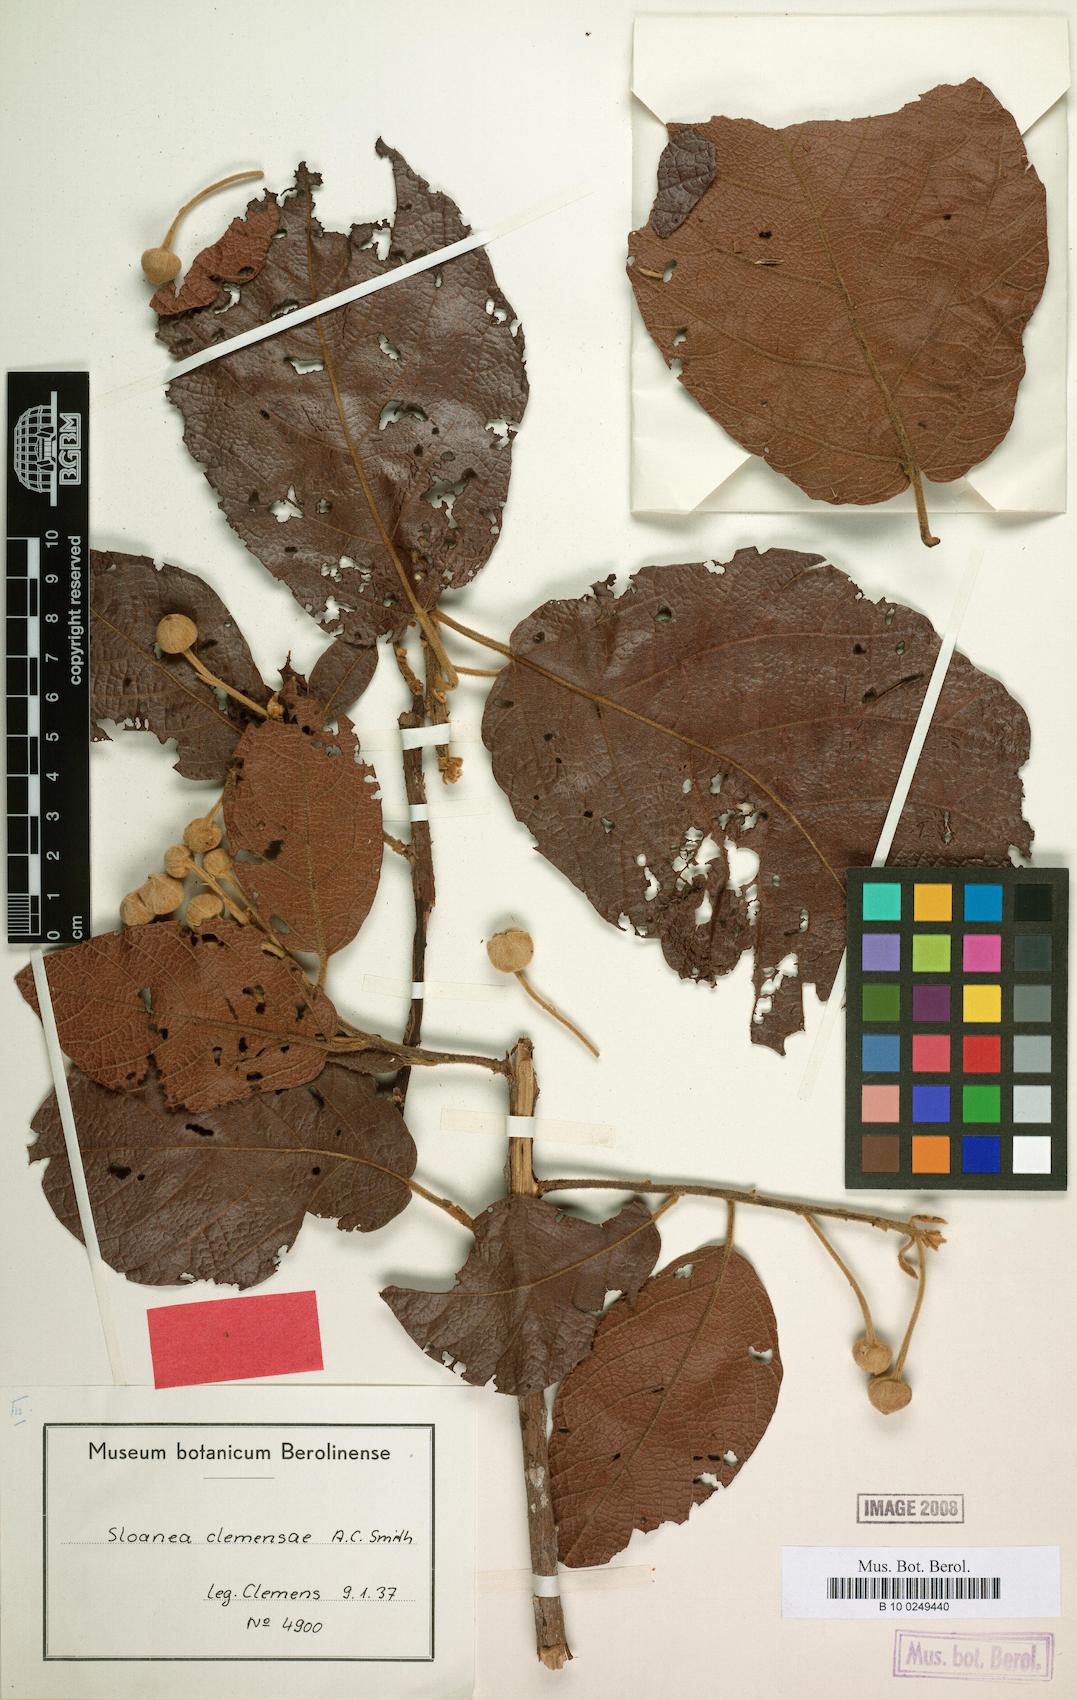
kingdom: Plantae
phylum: Tracheophyta
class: Magnoliopsida
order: Oxalidales
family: Elaeocarpaceae
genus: Sloanea
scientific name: Sloanea pulchra
